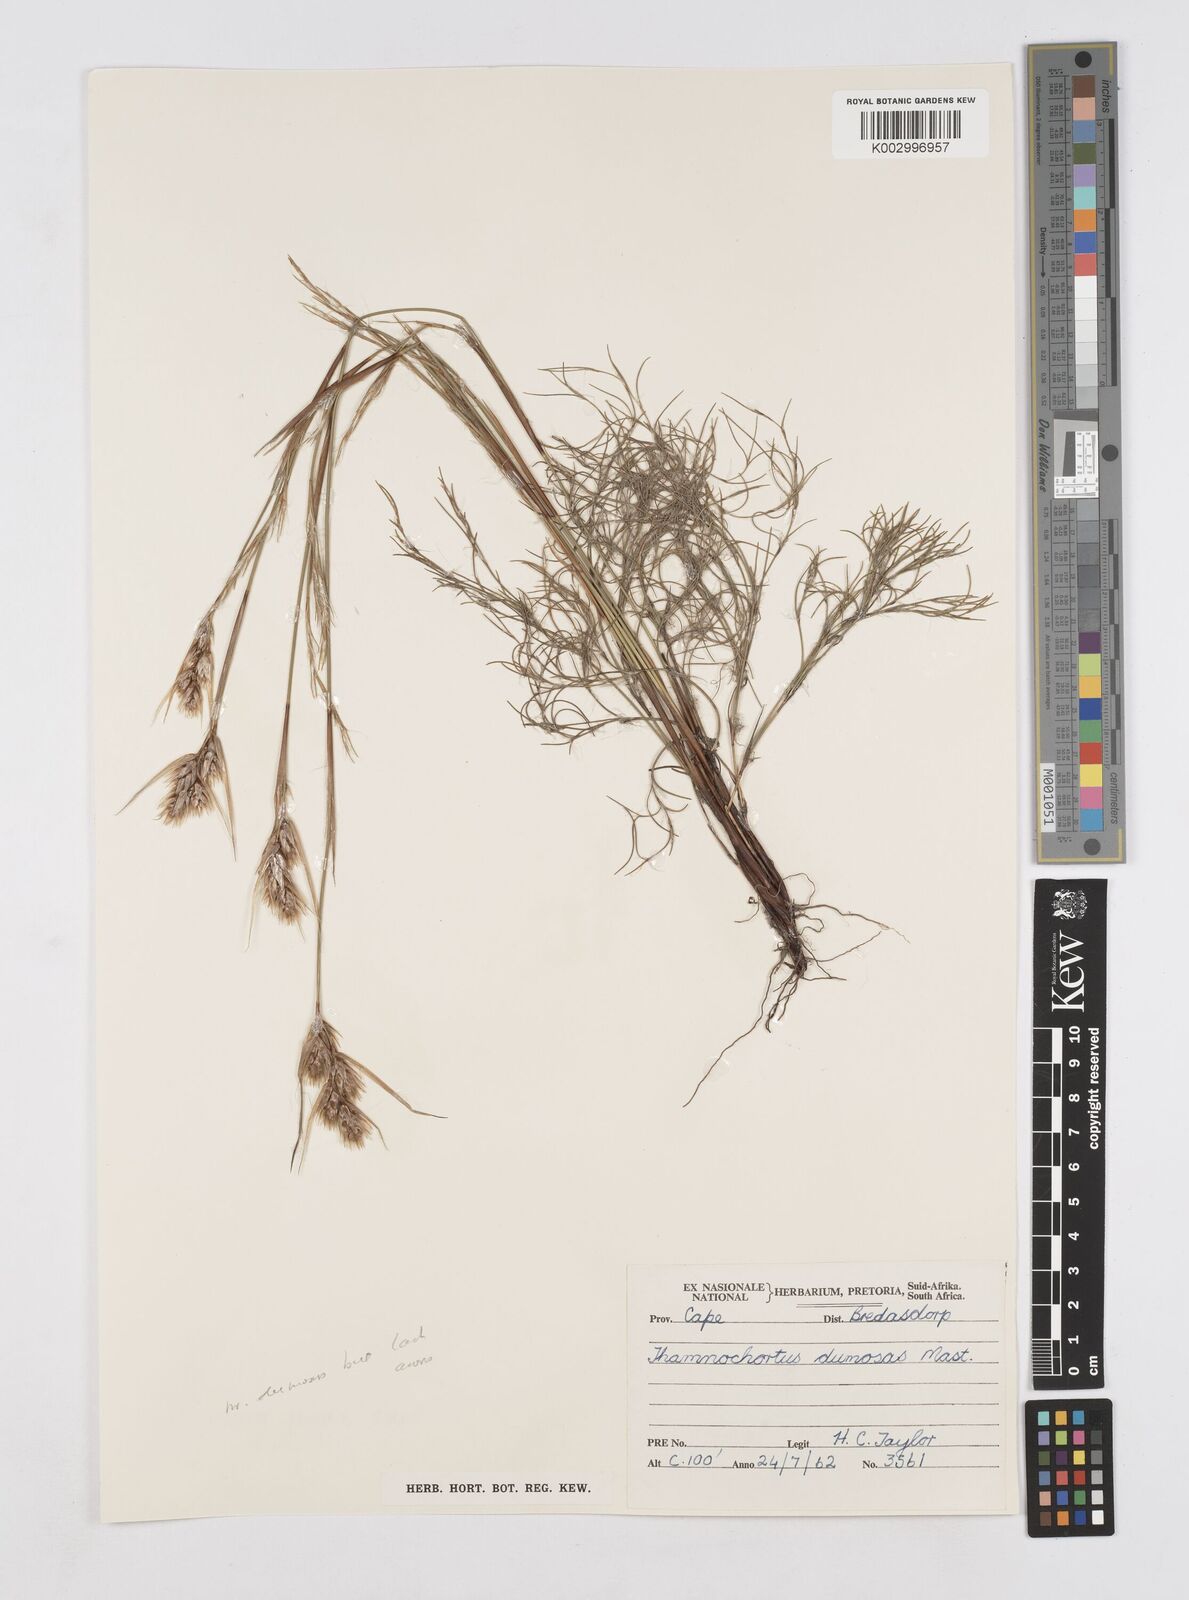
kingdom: Plantae
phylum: Tracheophyta
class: Liliopsida
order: Poales
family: Restionaceae
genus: Thamnochortus
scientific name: Thamnochortus dumosus
